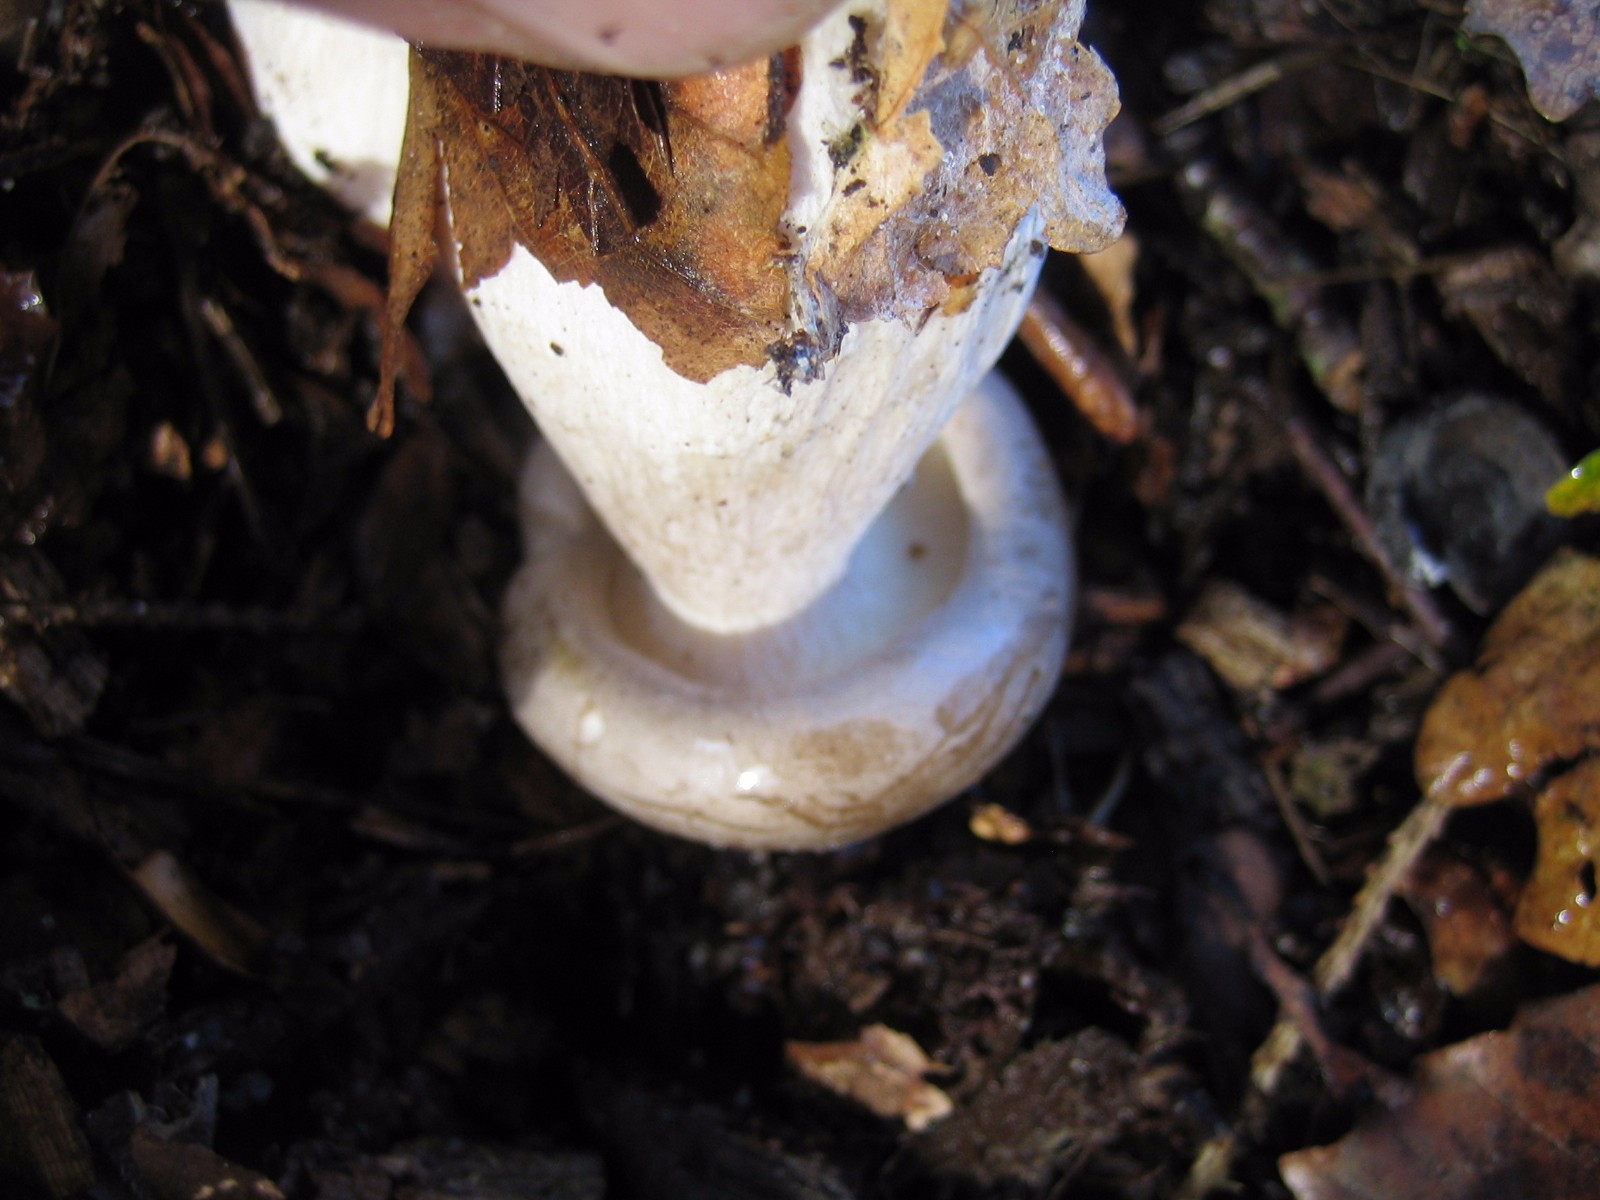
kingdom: Fungi
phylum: Basidiomycota
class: Agaricomycetes
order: Agaricales
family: Tricholomataceae
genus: Clitocybe
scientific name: Clitocybe nebularis
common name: tåge-tragthat
